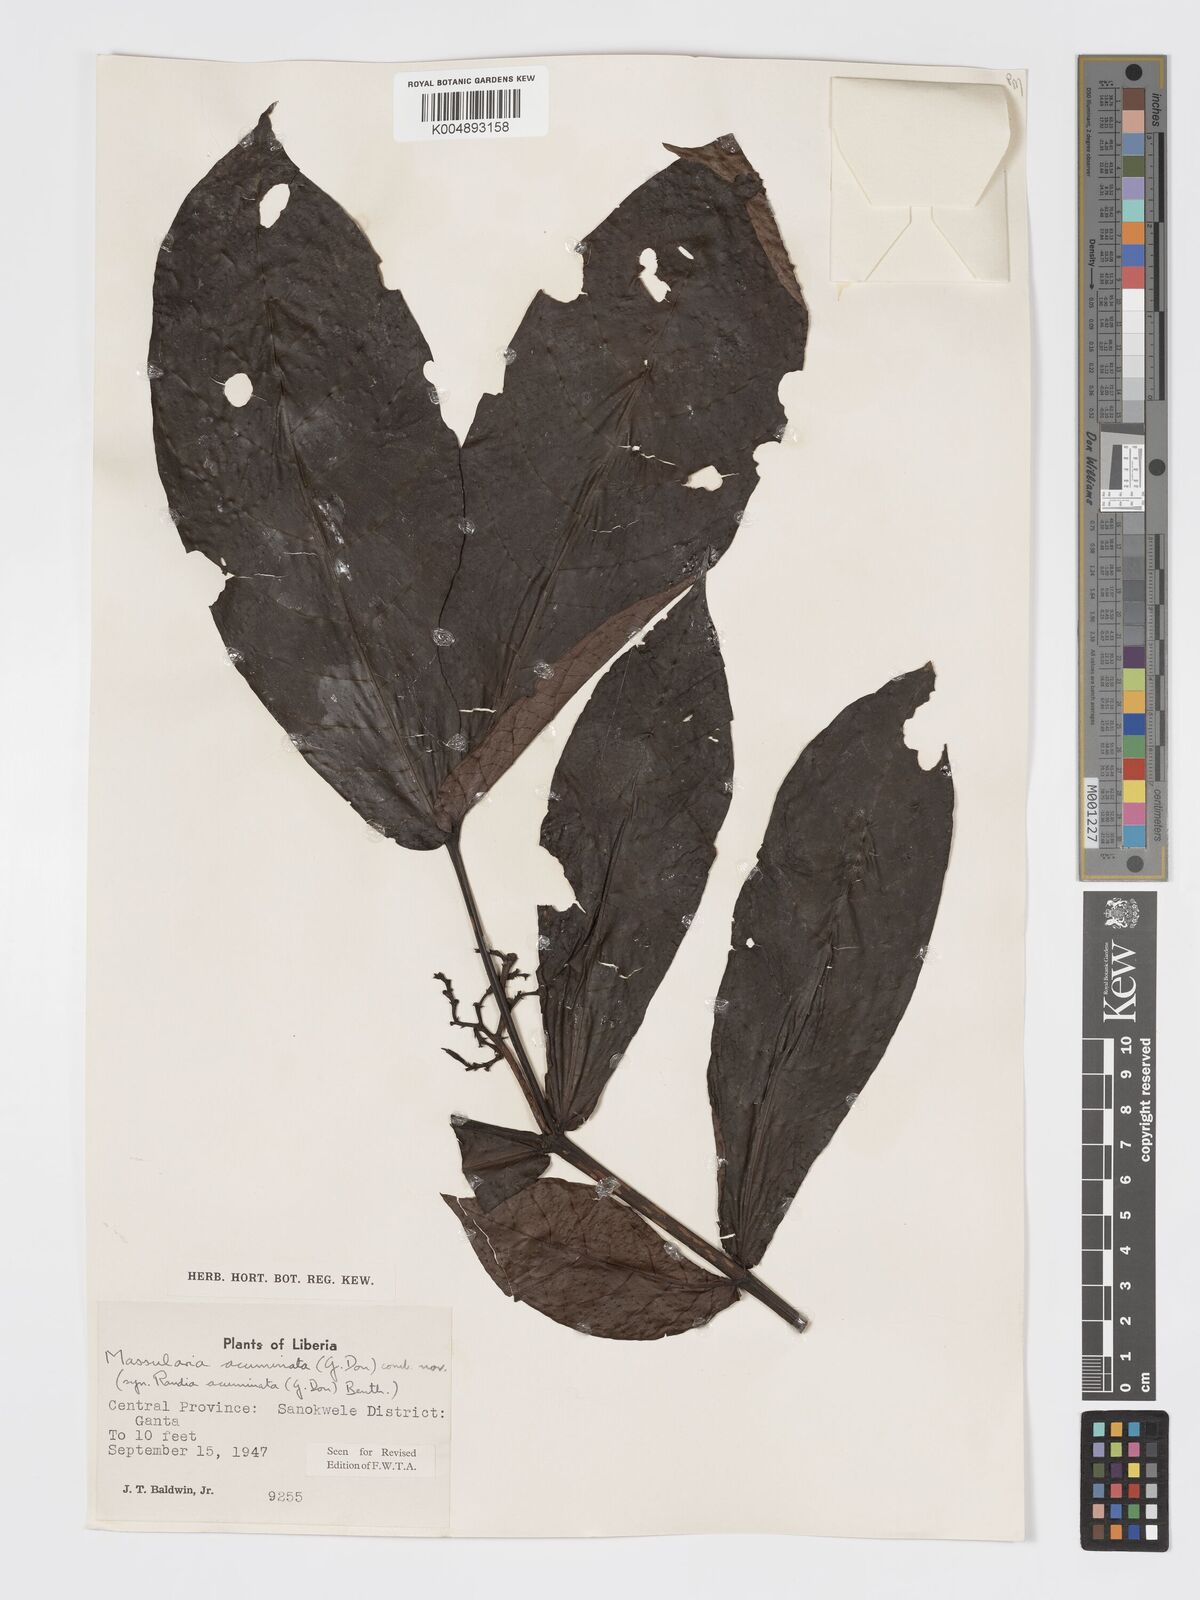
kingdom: Plantae
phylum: Tracheophyta
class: Magnoliopsida
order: Gentianales
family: Rubiaceae
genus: Massularia
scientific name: Massularia acuminata
